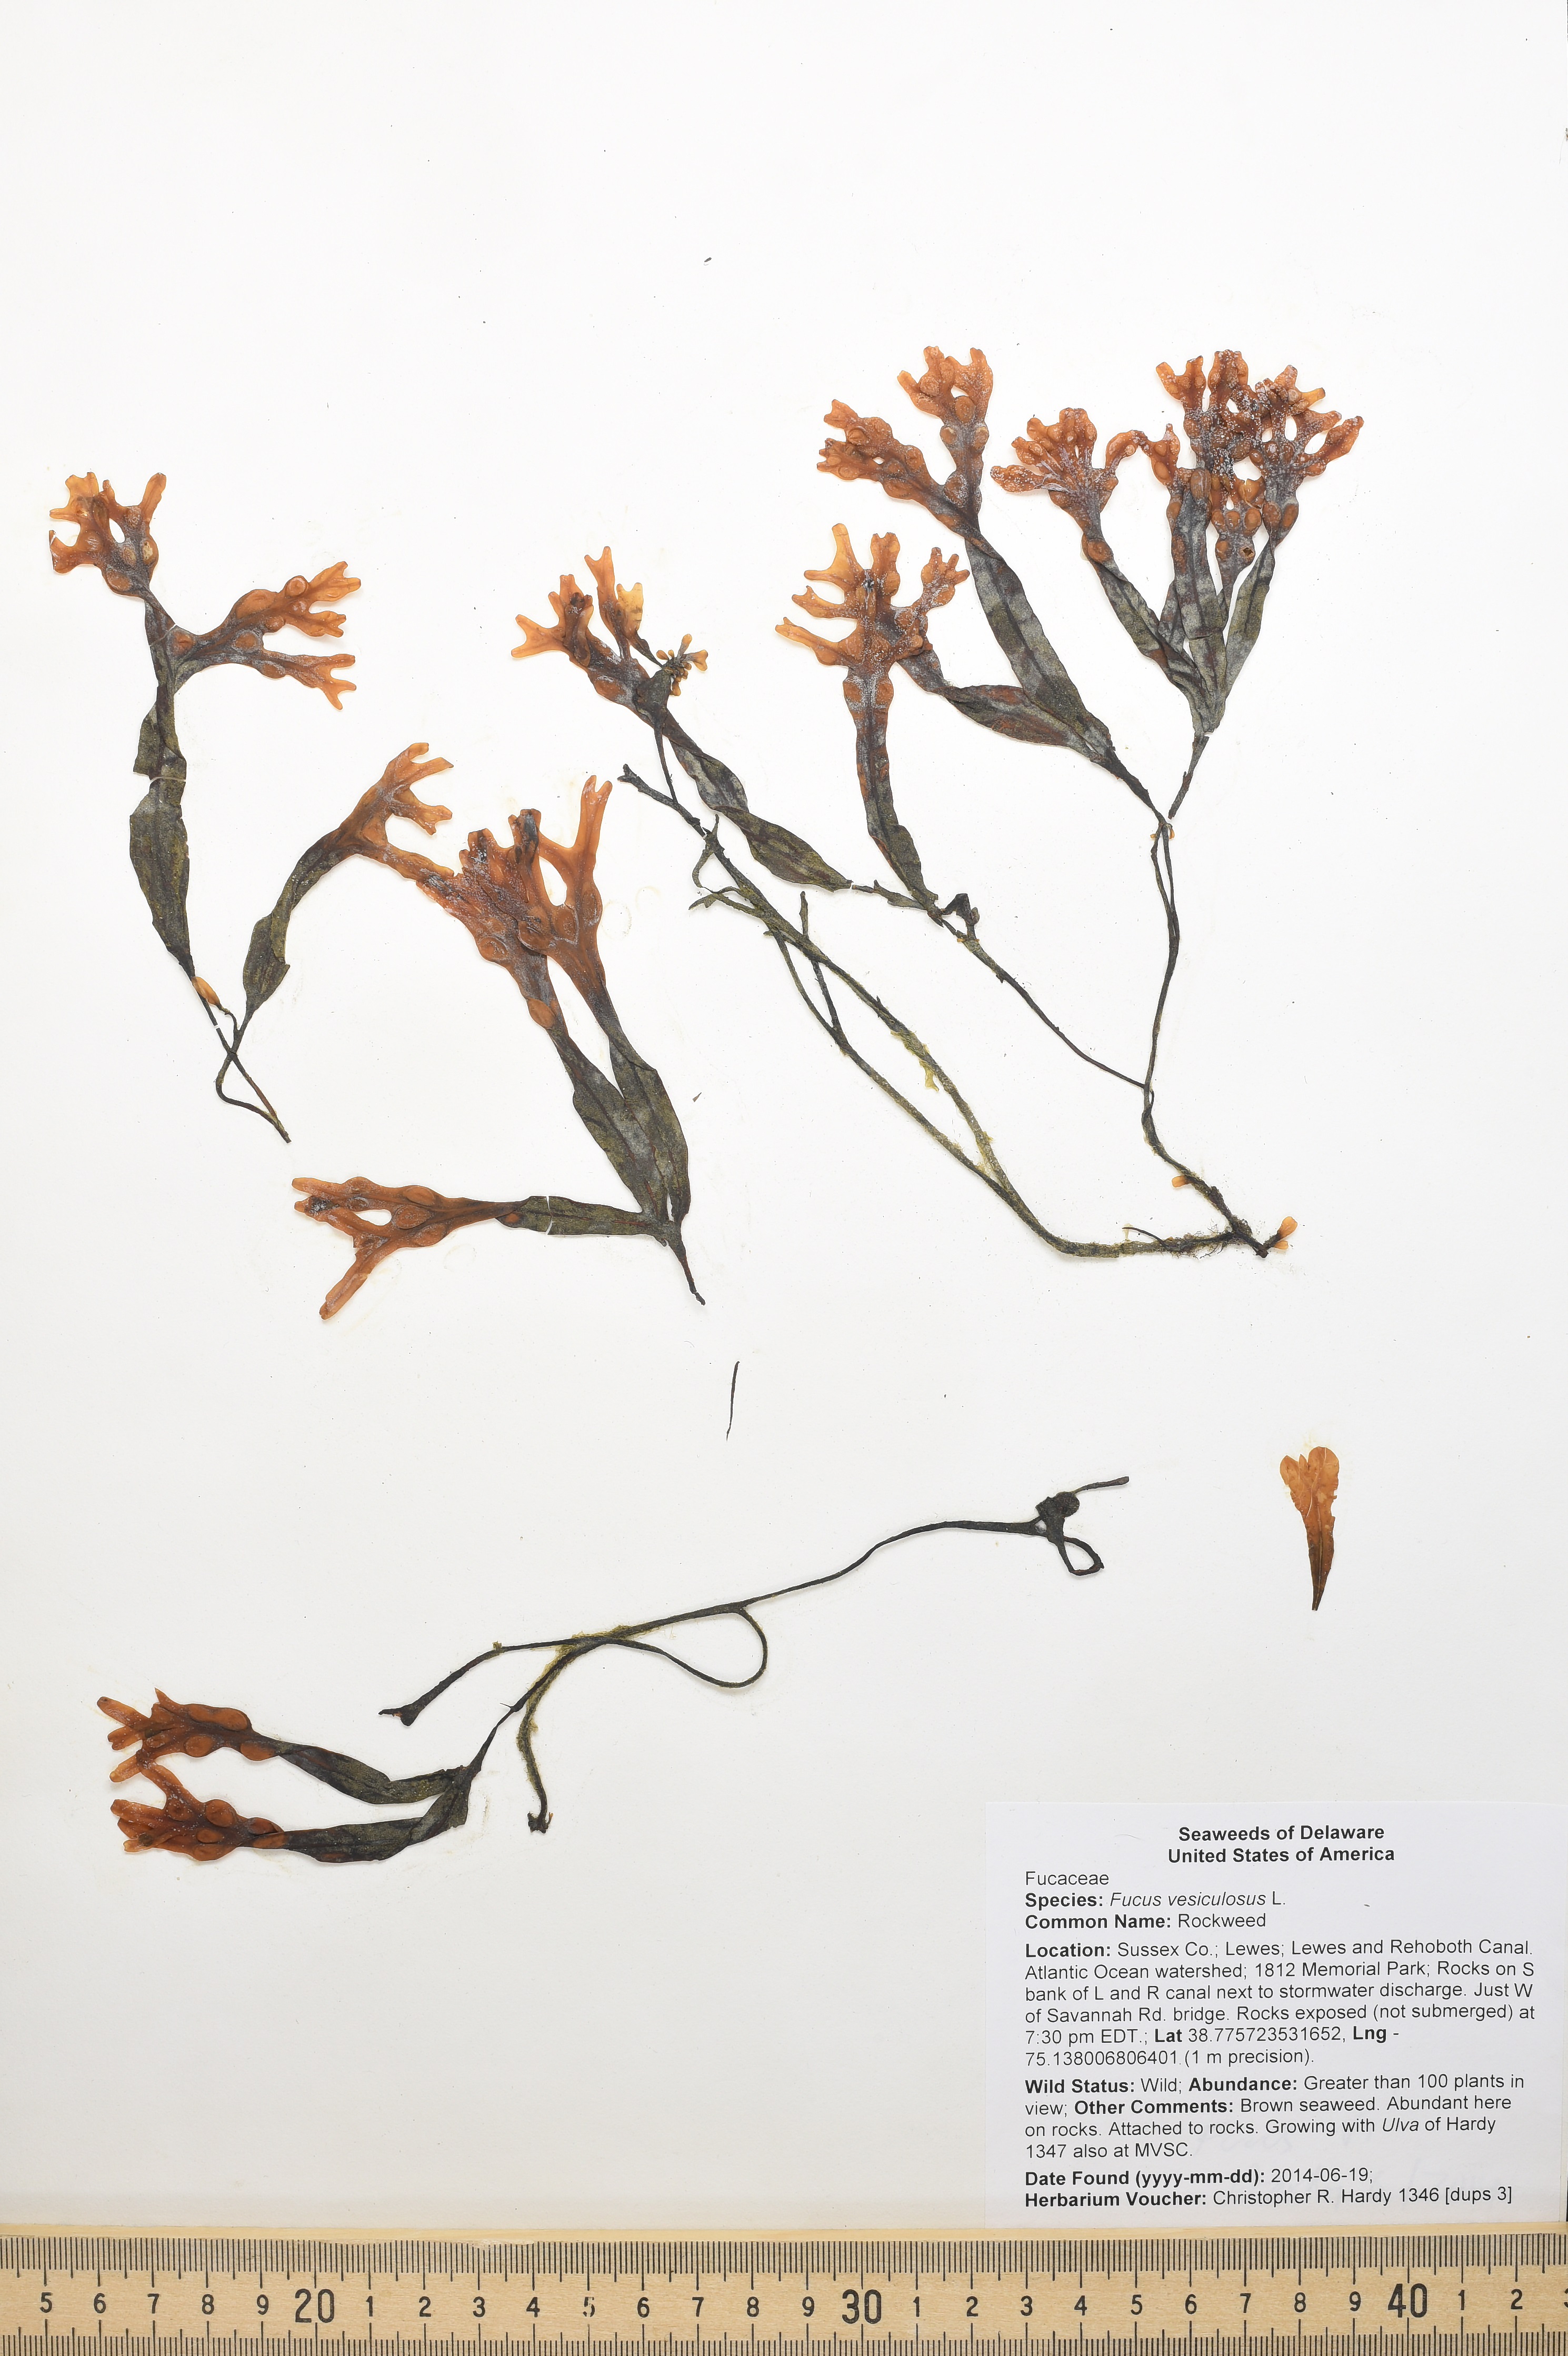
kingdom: Chromista
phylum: Ochrophyta
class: Phaeophyceae
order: Fucales
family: Fucaceae
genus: Fucus
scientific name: Fucus vesiculosus
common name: Rockweed
